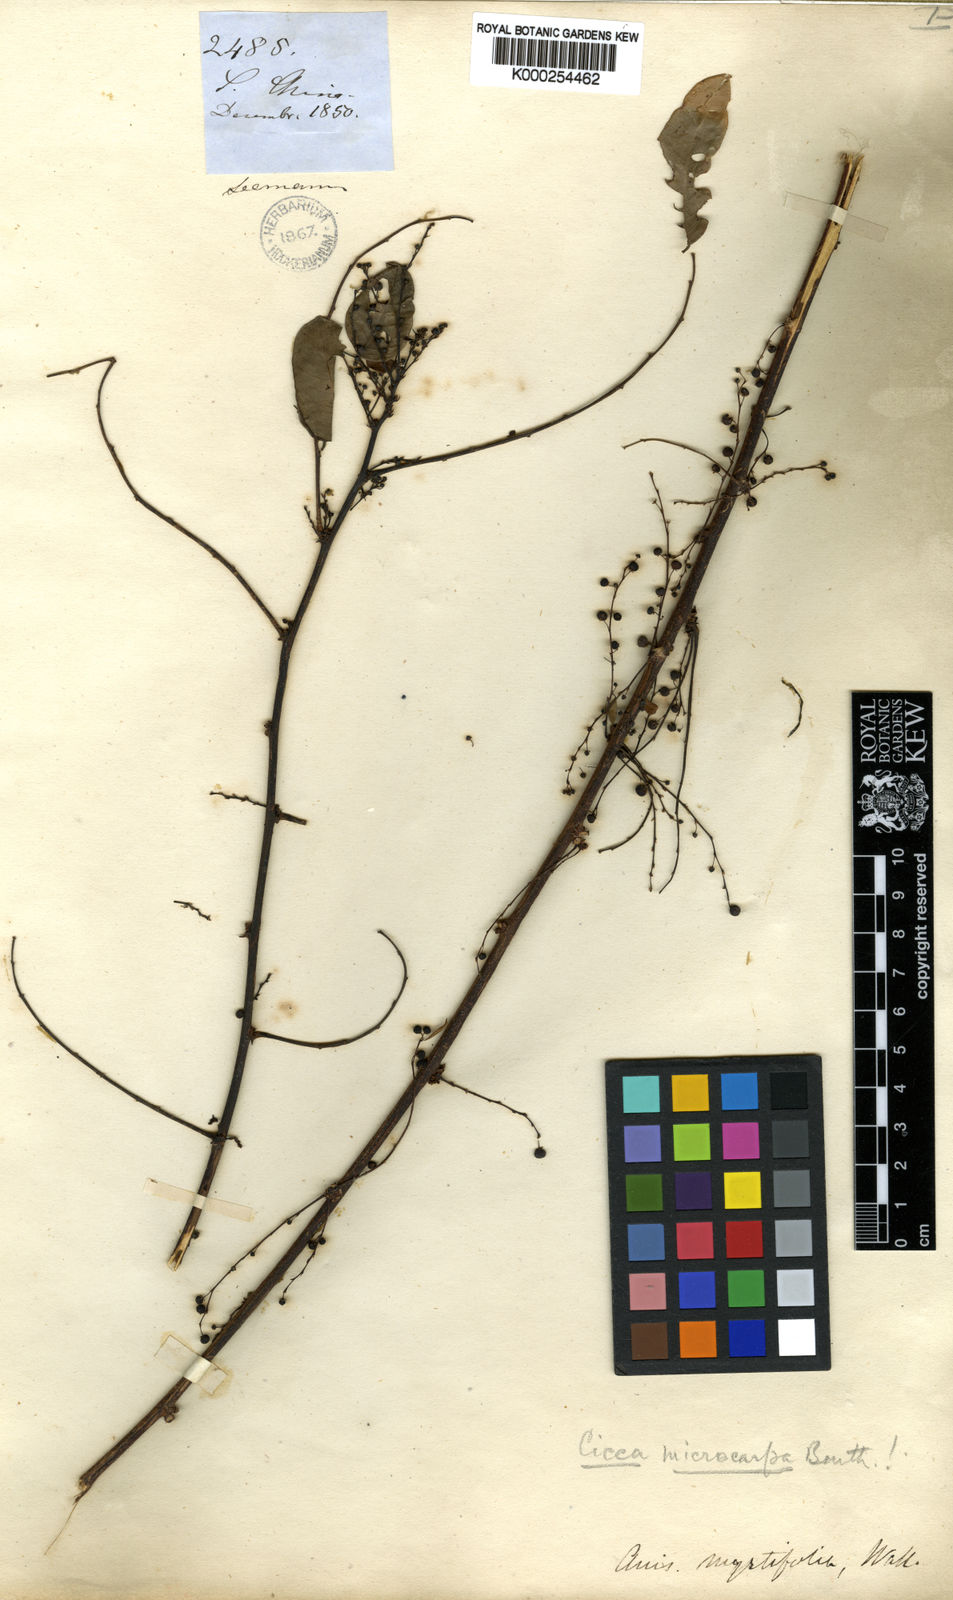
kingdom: Plantae
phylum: Tracheophyta
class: Magnoliopsida
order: Malpighiales
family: Phyllanthaceae
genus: Phyllanthus
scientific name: Phyllanthus
